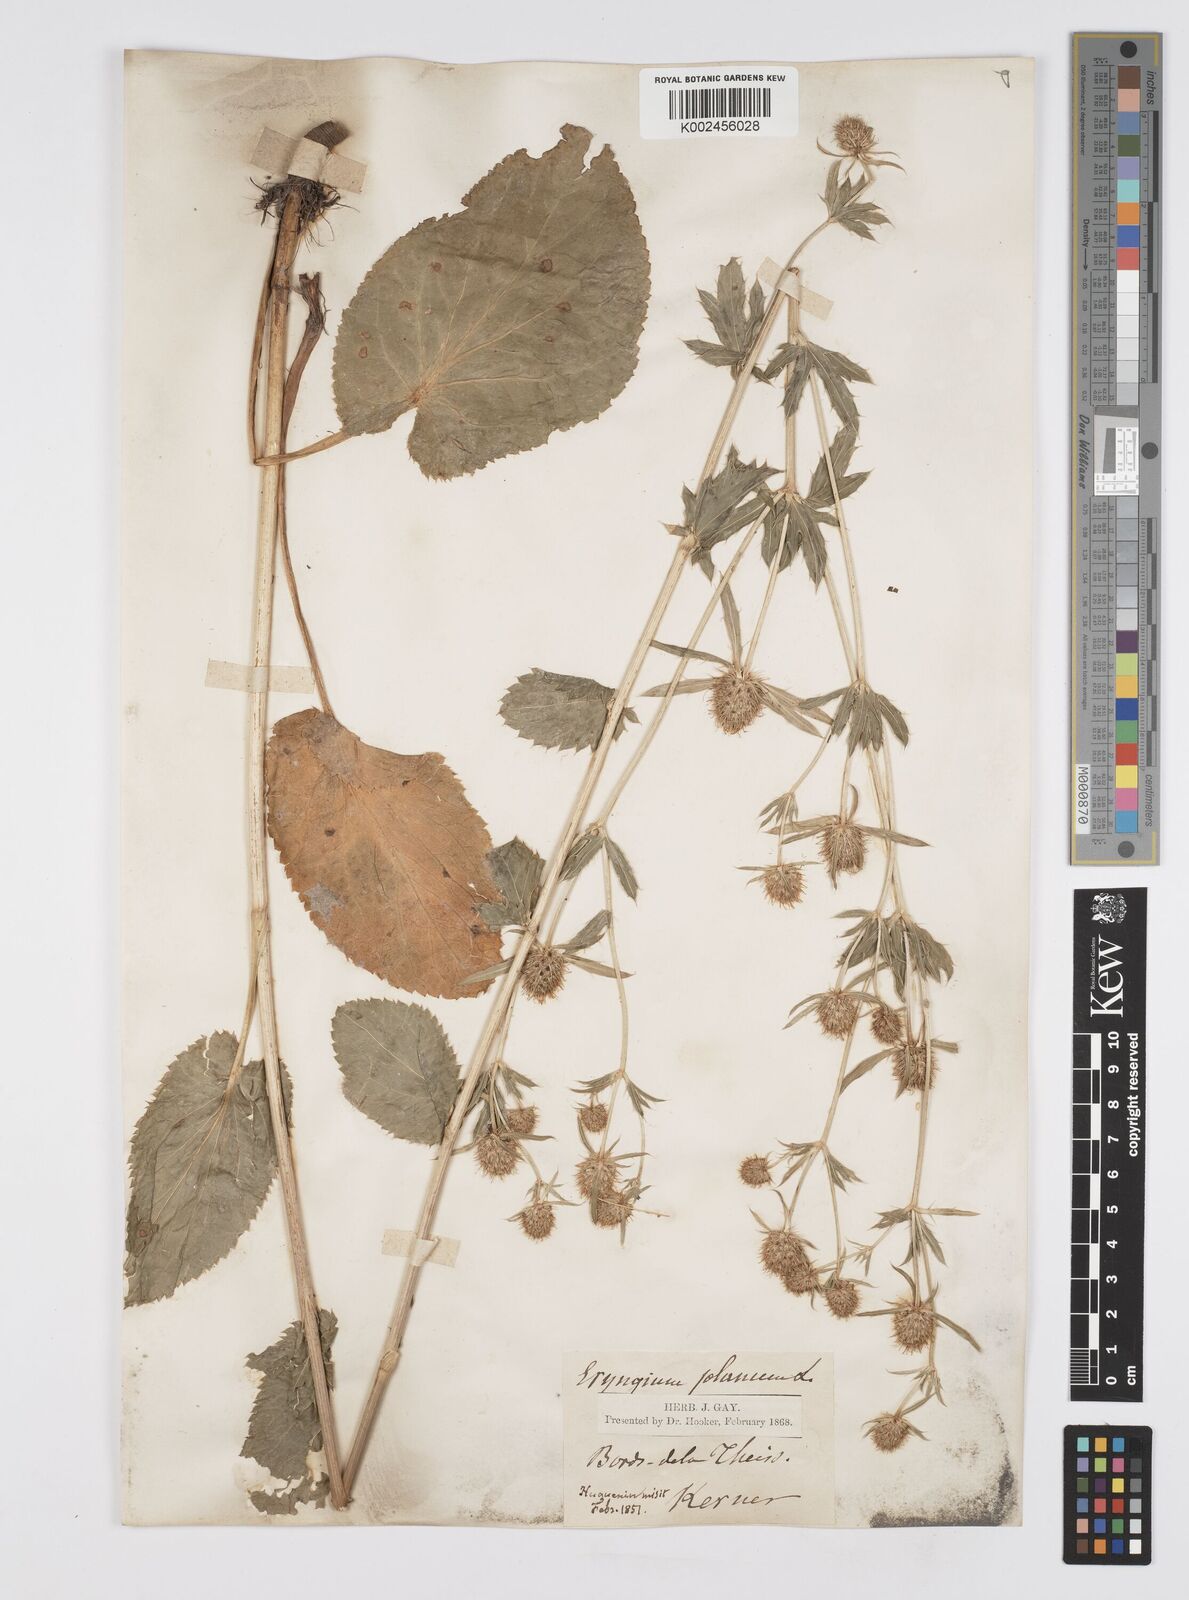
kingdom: Plantae
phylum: Tracheophyta
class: Magnoliopsida
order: Apiales
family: Apiaceae
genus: Eryngium
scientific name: Eryngium planum
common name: Blue eryngo
